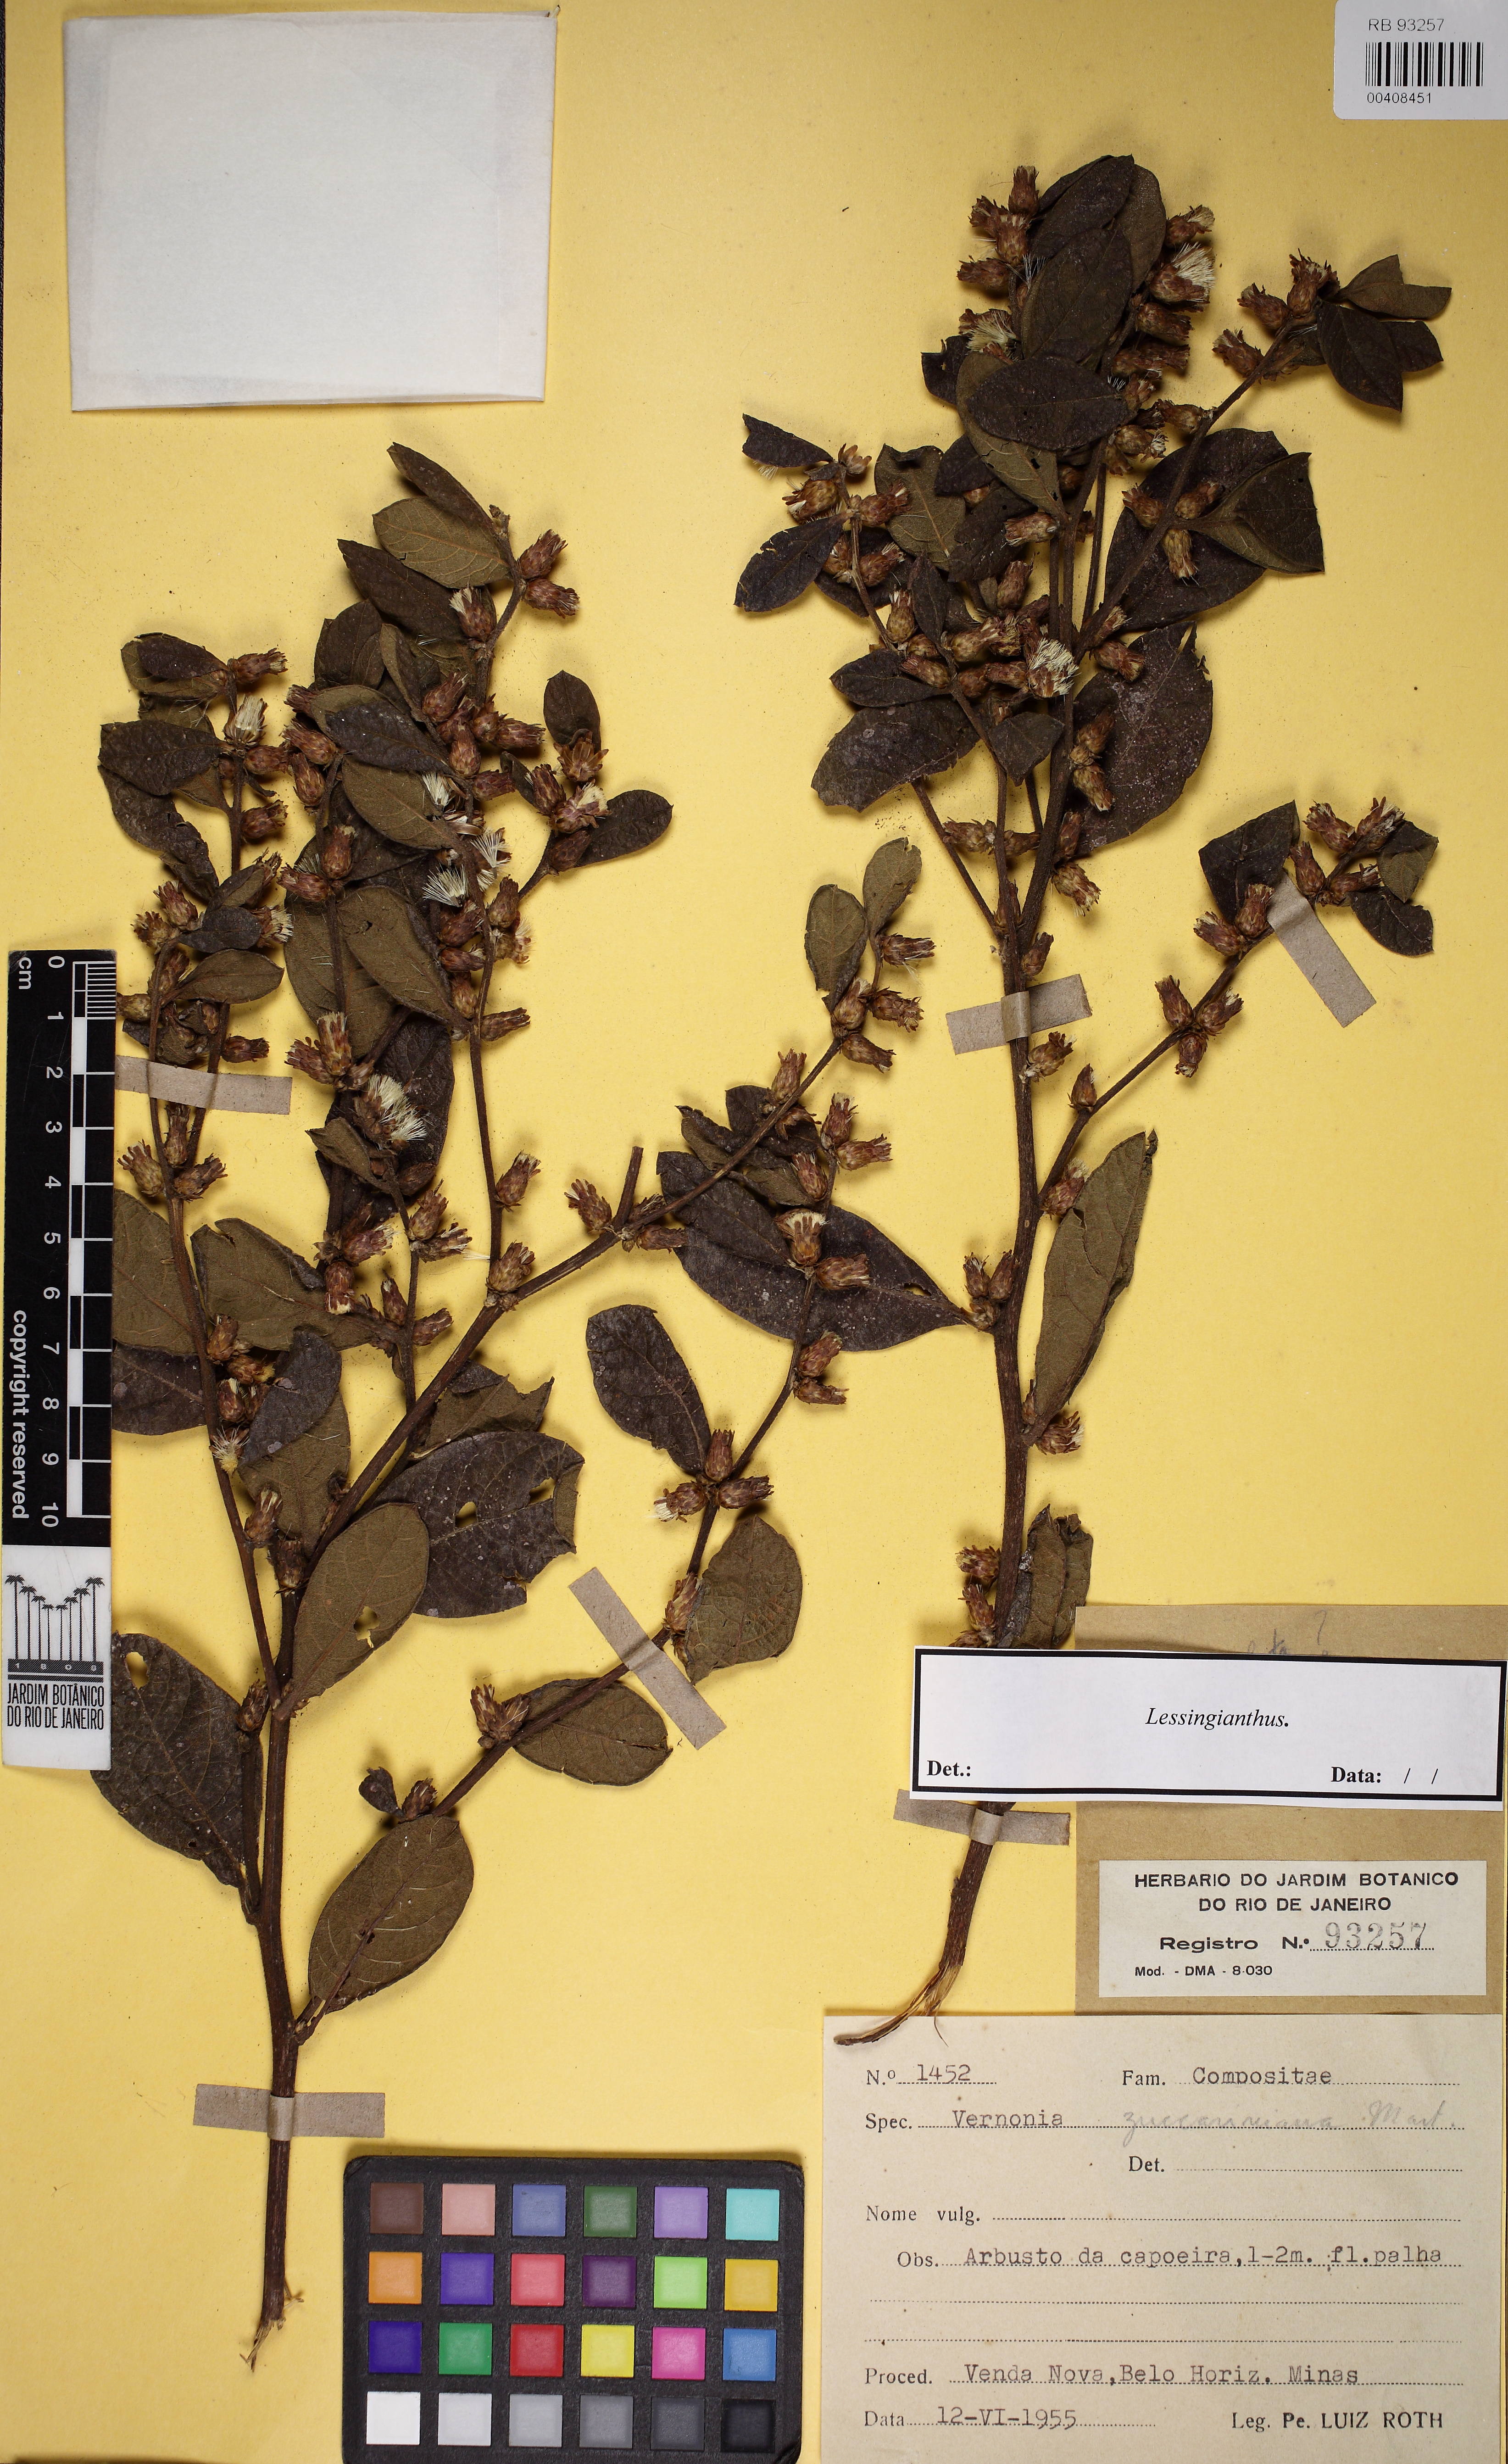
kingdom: Plantae
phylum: Tracheophyta
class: Magnoliopsida
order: Asterales
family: Asteraceae
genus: Lessingianthus
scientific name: Lessingianthus
